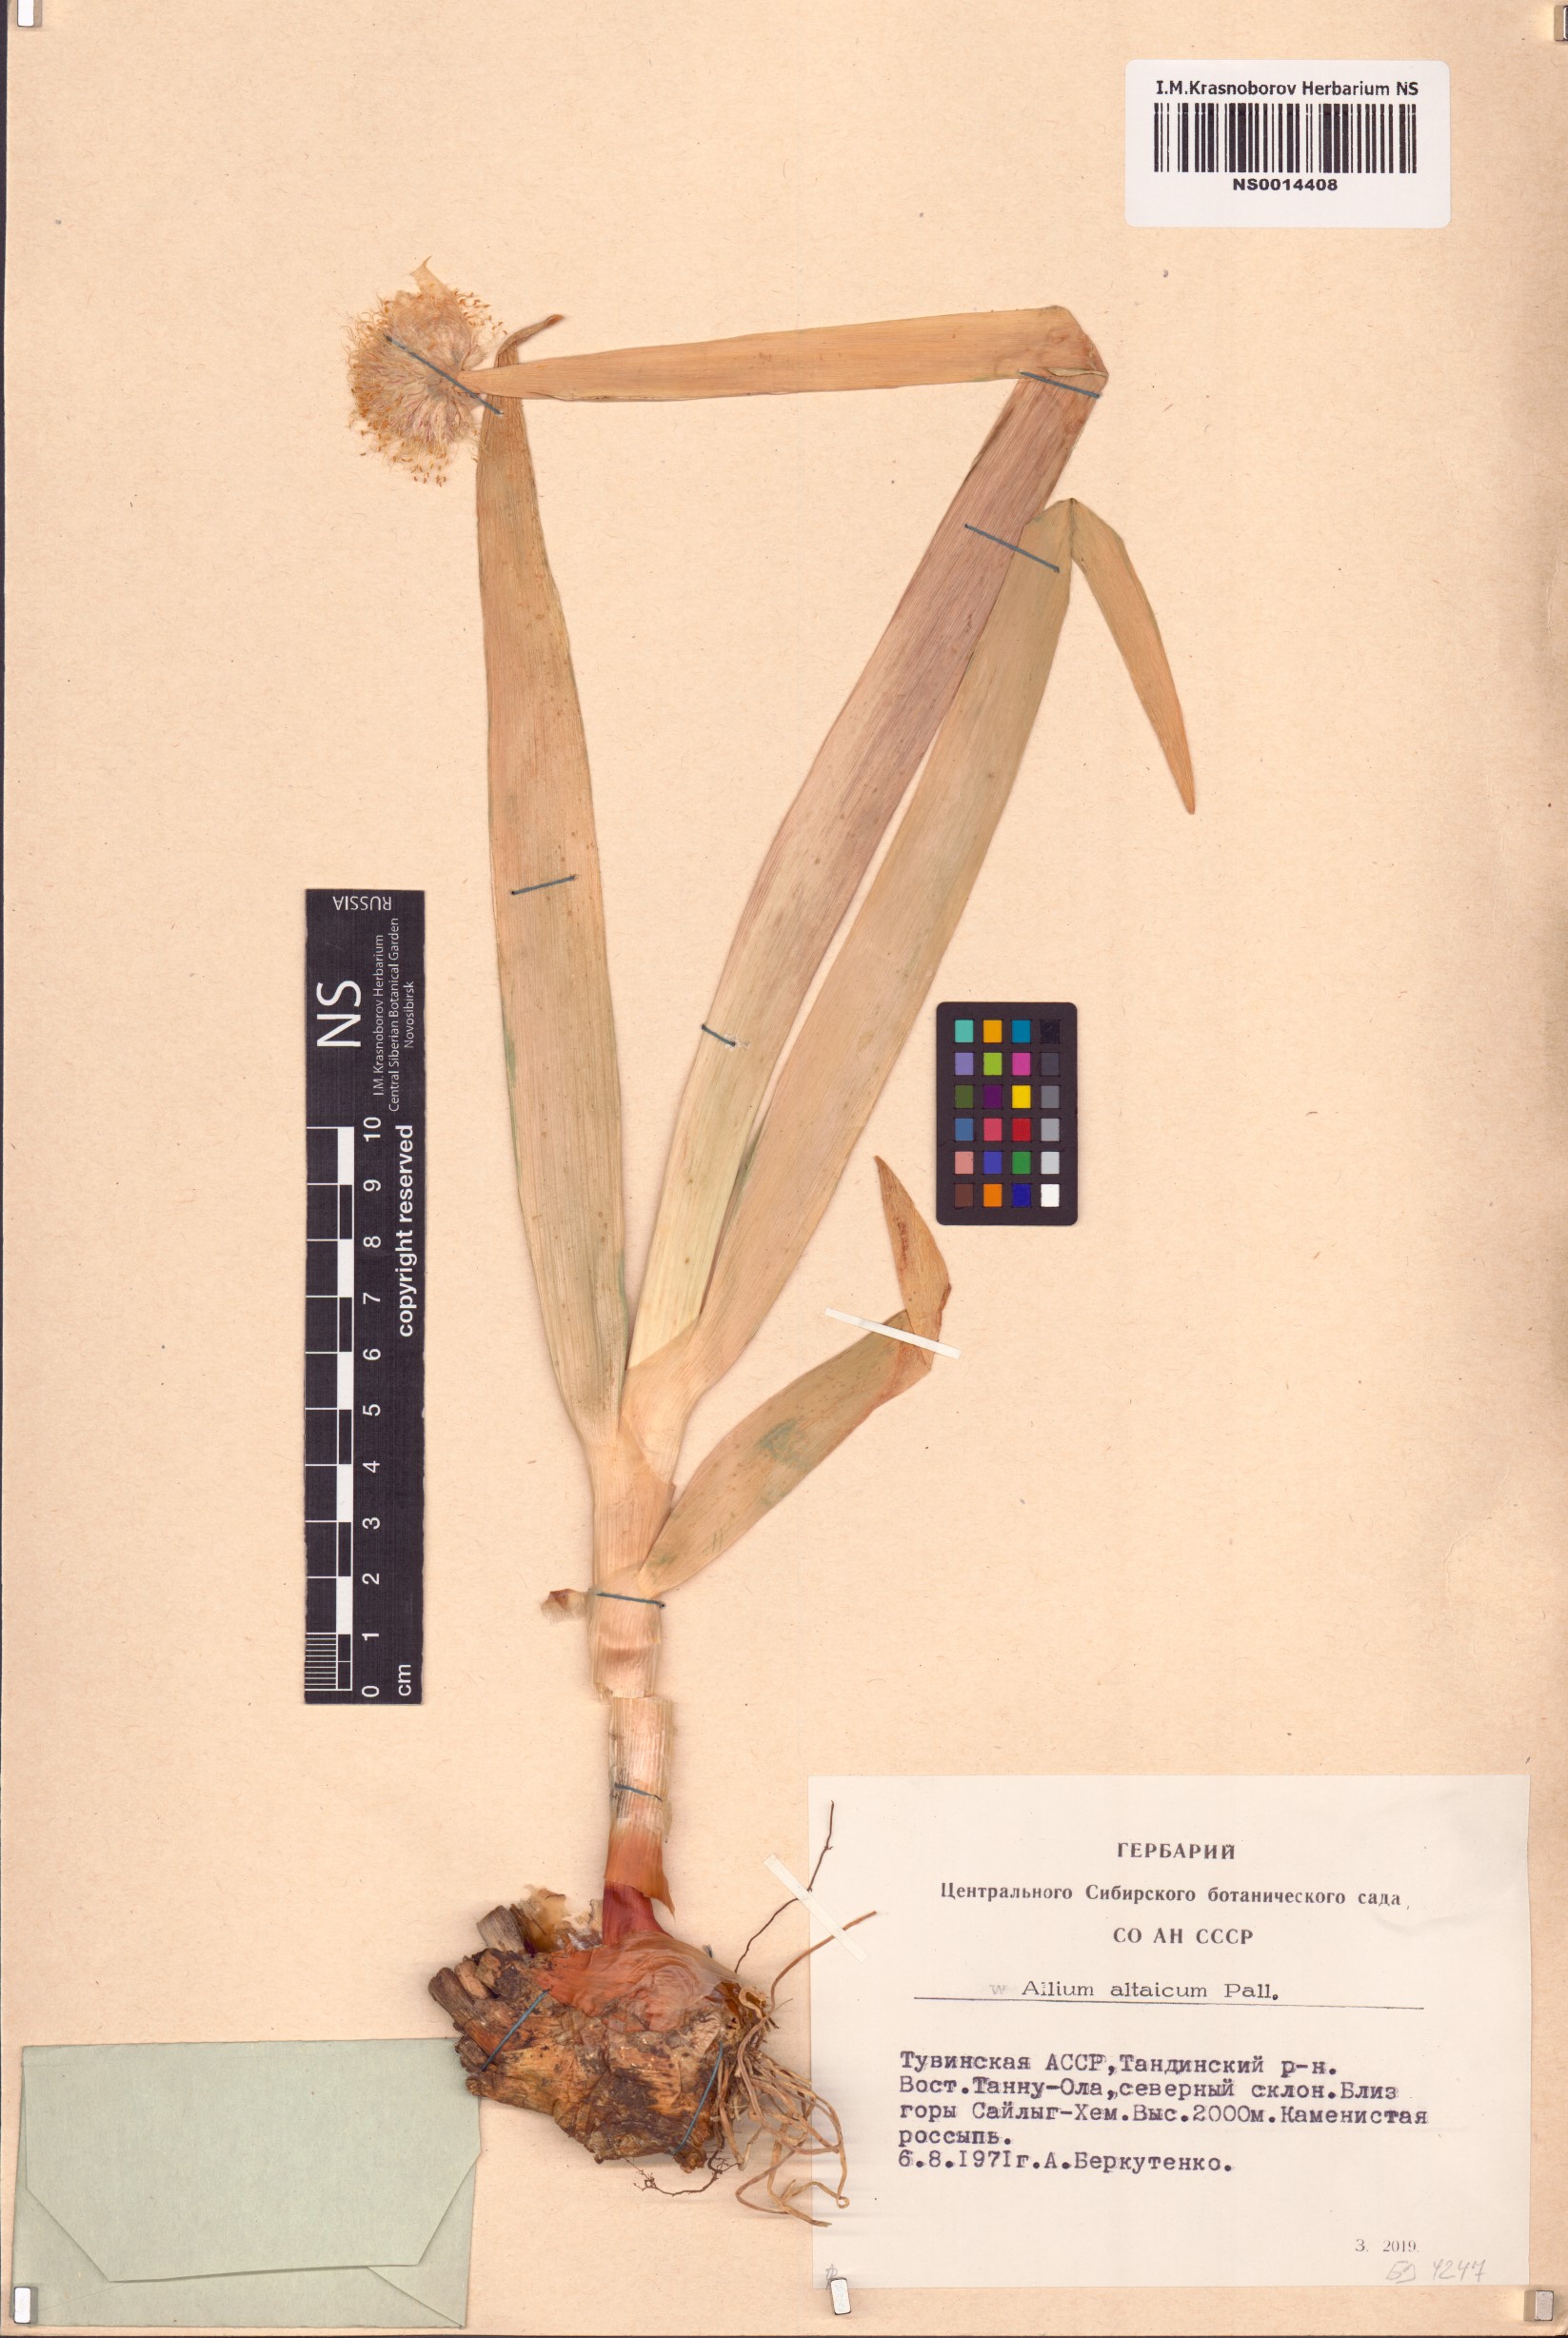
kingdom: Plantae
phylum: Tracheophyta
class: Liliopsida
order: Asparagales
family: Amaryllidaceae
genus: Allium
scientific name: Allium altaicum
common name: Altai onion
